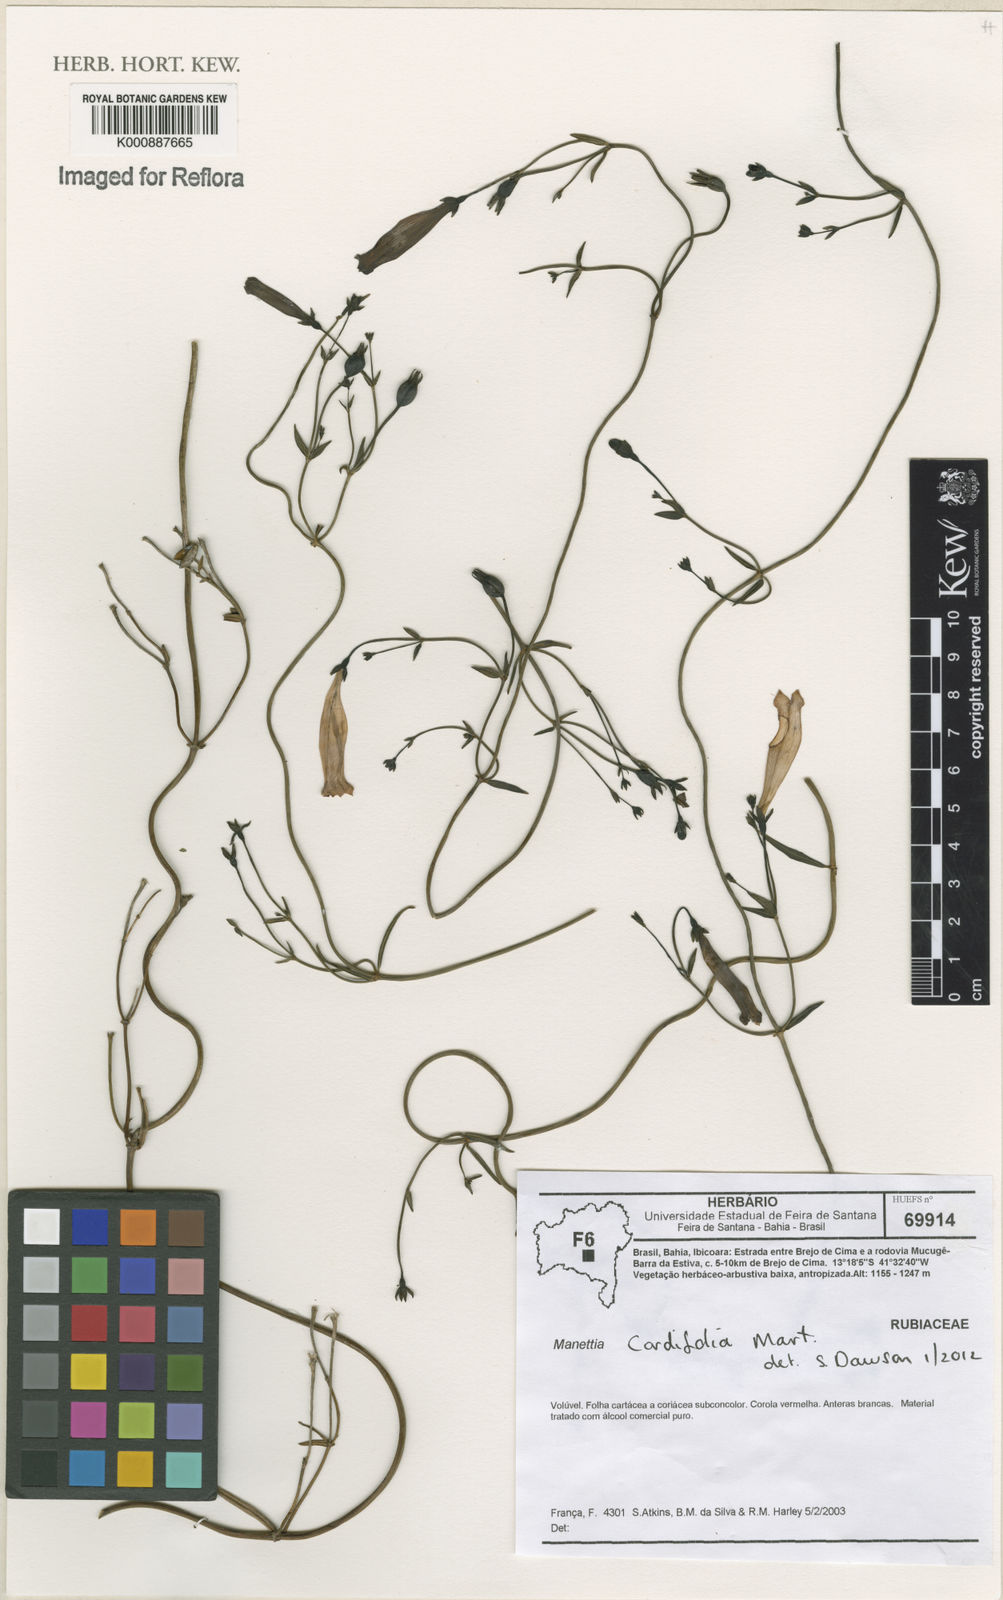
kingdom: Plantae
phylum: Tracheophyta
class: Magnoliopsida
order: Gentianales
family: Rubiaceae
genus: Manettia
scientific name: Manettia
